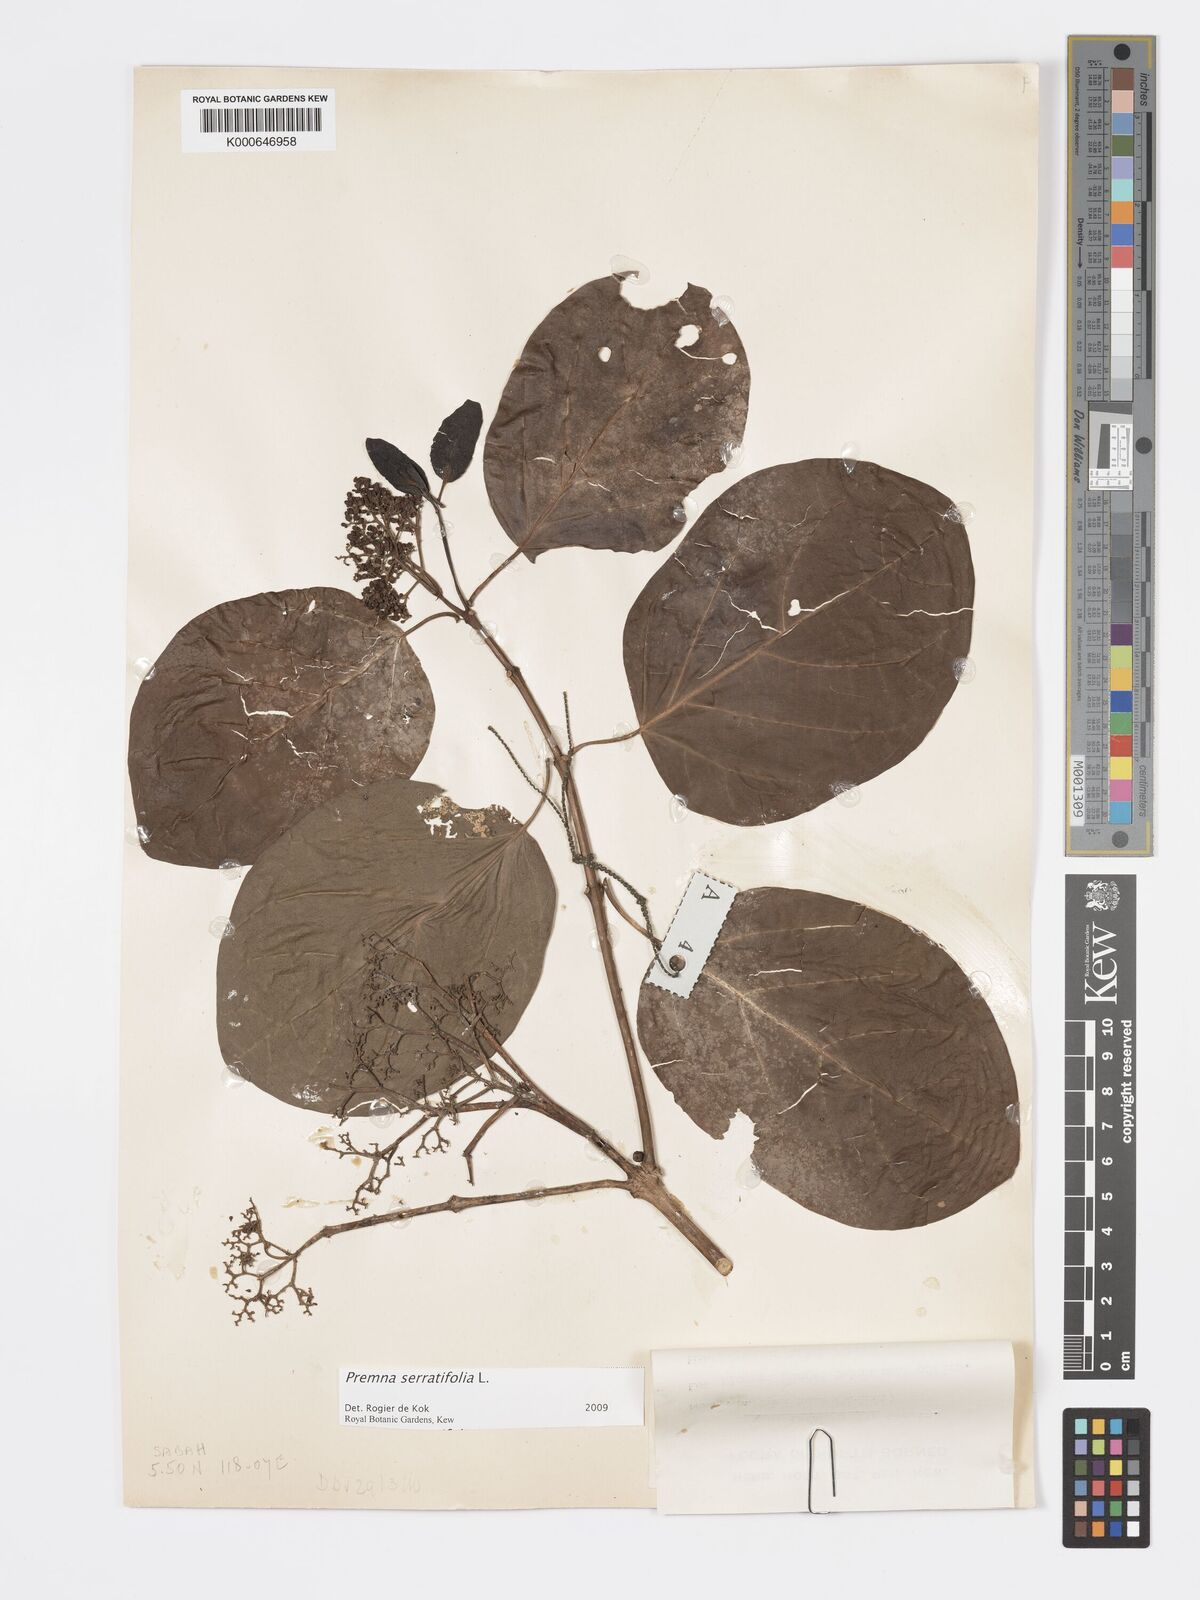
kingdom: Plantae
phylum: Tracheophyta
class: Magnoliopsida
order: Lamiales
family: Lamiaceae
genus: Premna
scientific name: Premna serratifolia
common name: Bastard guelder
